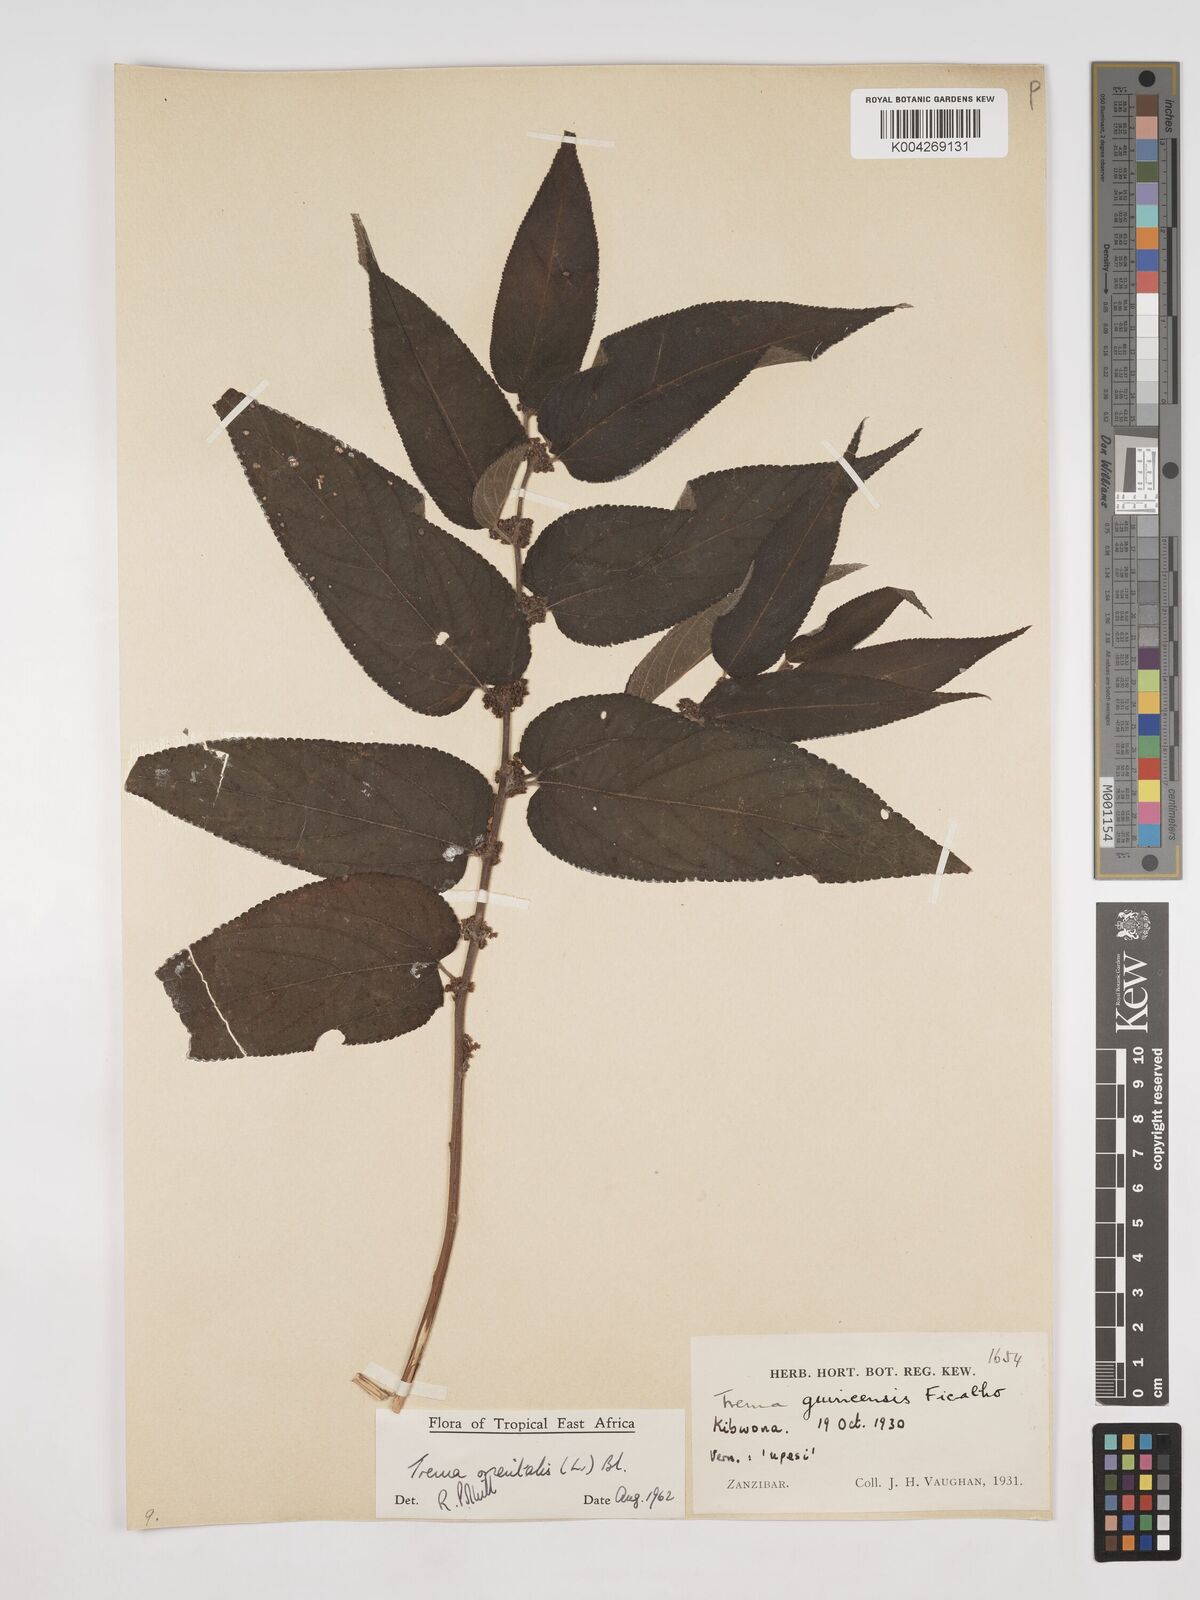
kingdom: Plantae
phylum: Tracheophyta
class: Magnoliopsida
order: Rosales
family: Cannabaceae
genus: Trema
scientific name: Trema orientale
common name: Indian charcoal tree
